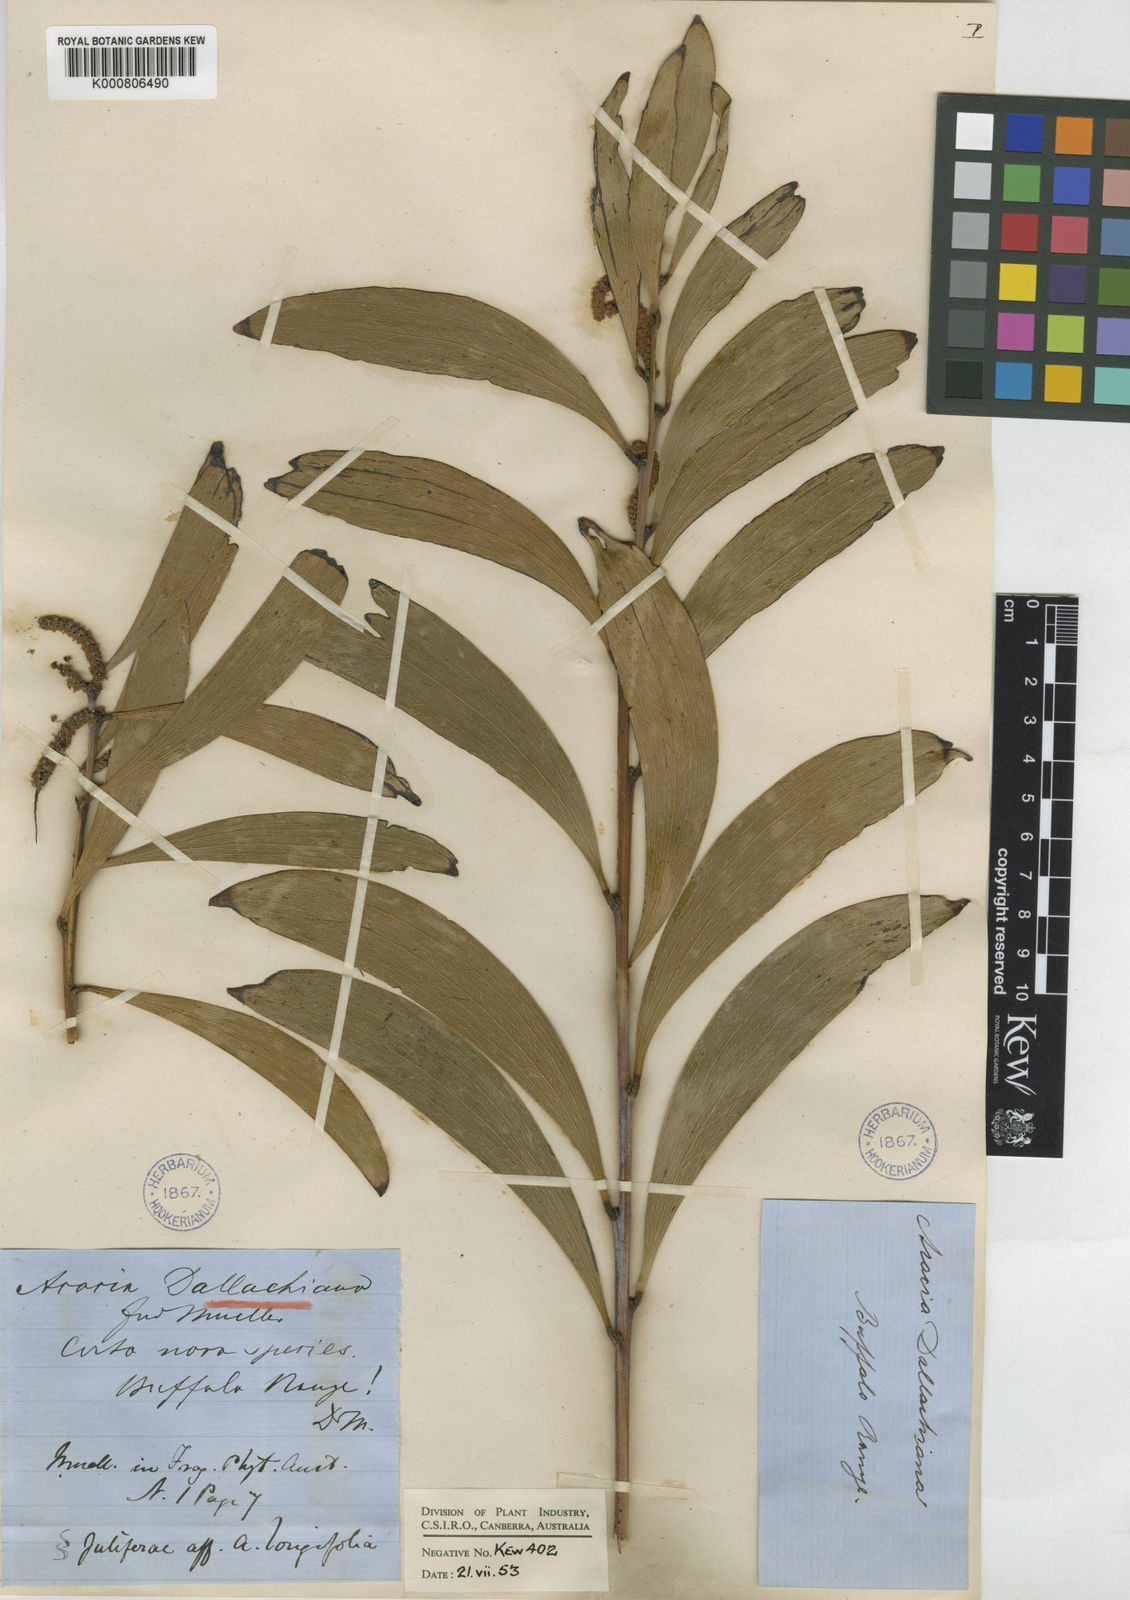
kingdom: Plantae
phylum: Tracheophyta
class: Magnoliopsida
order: Fabales
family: Fabaceae
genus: Acacia
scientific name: Acacia dallachiana
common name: Catkin wattle
